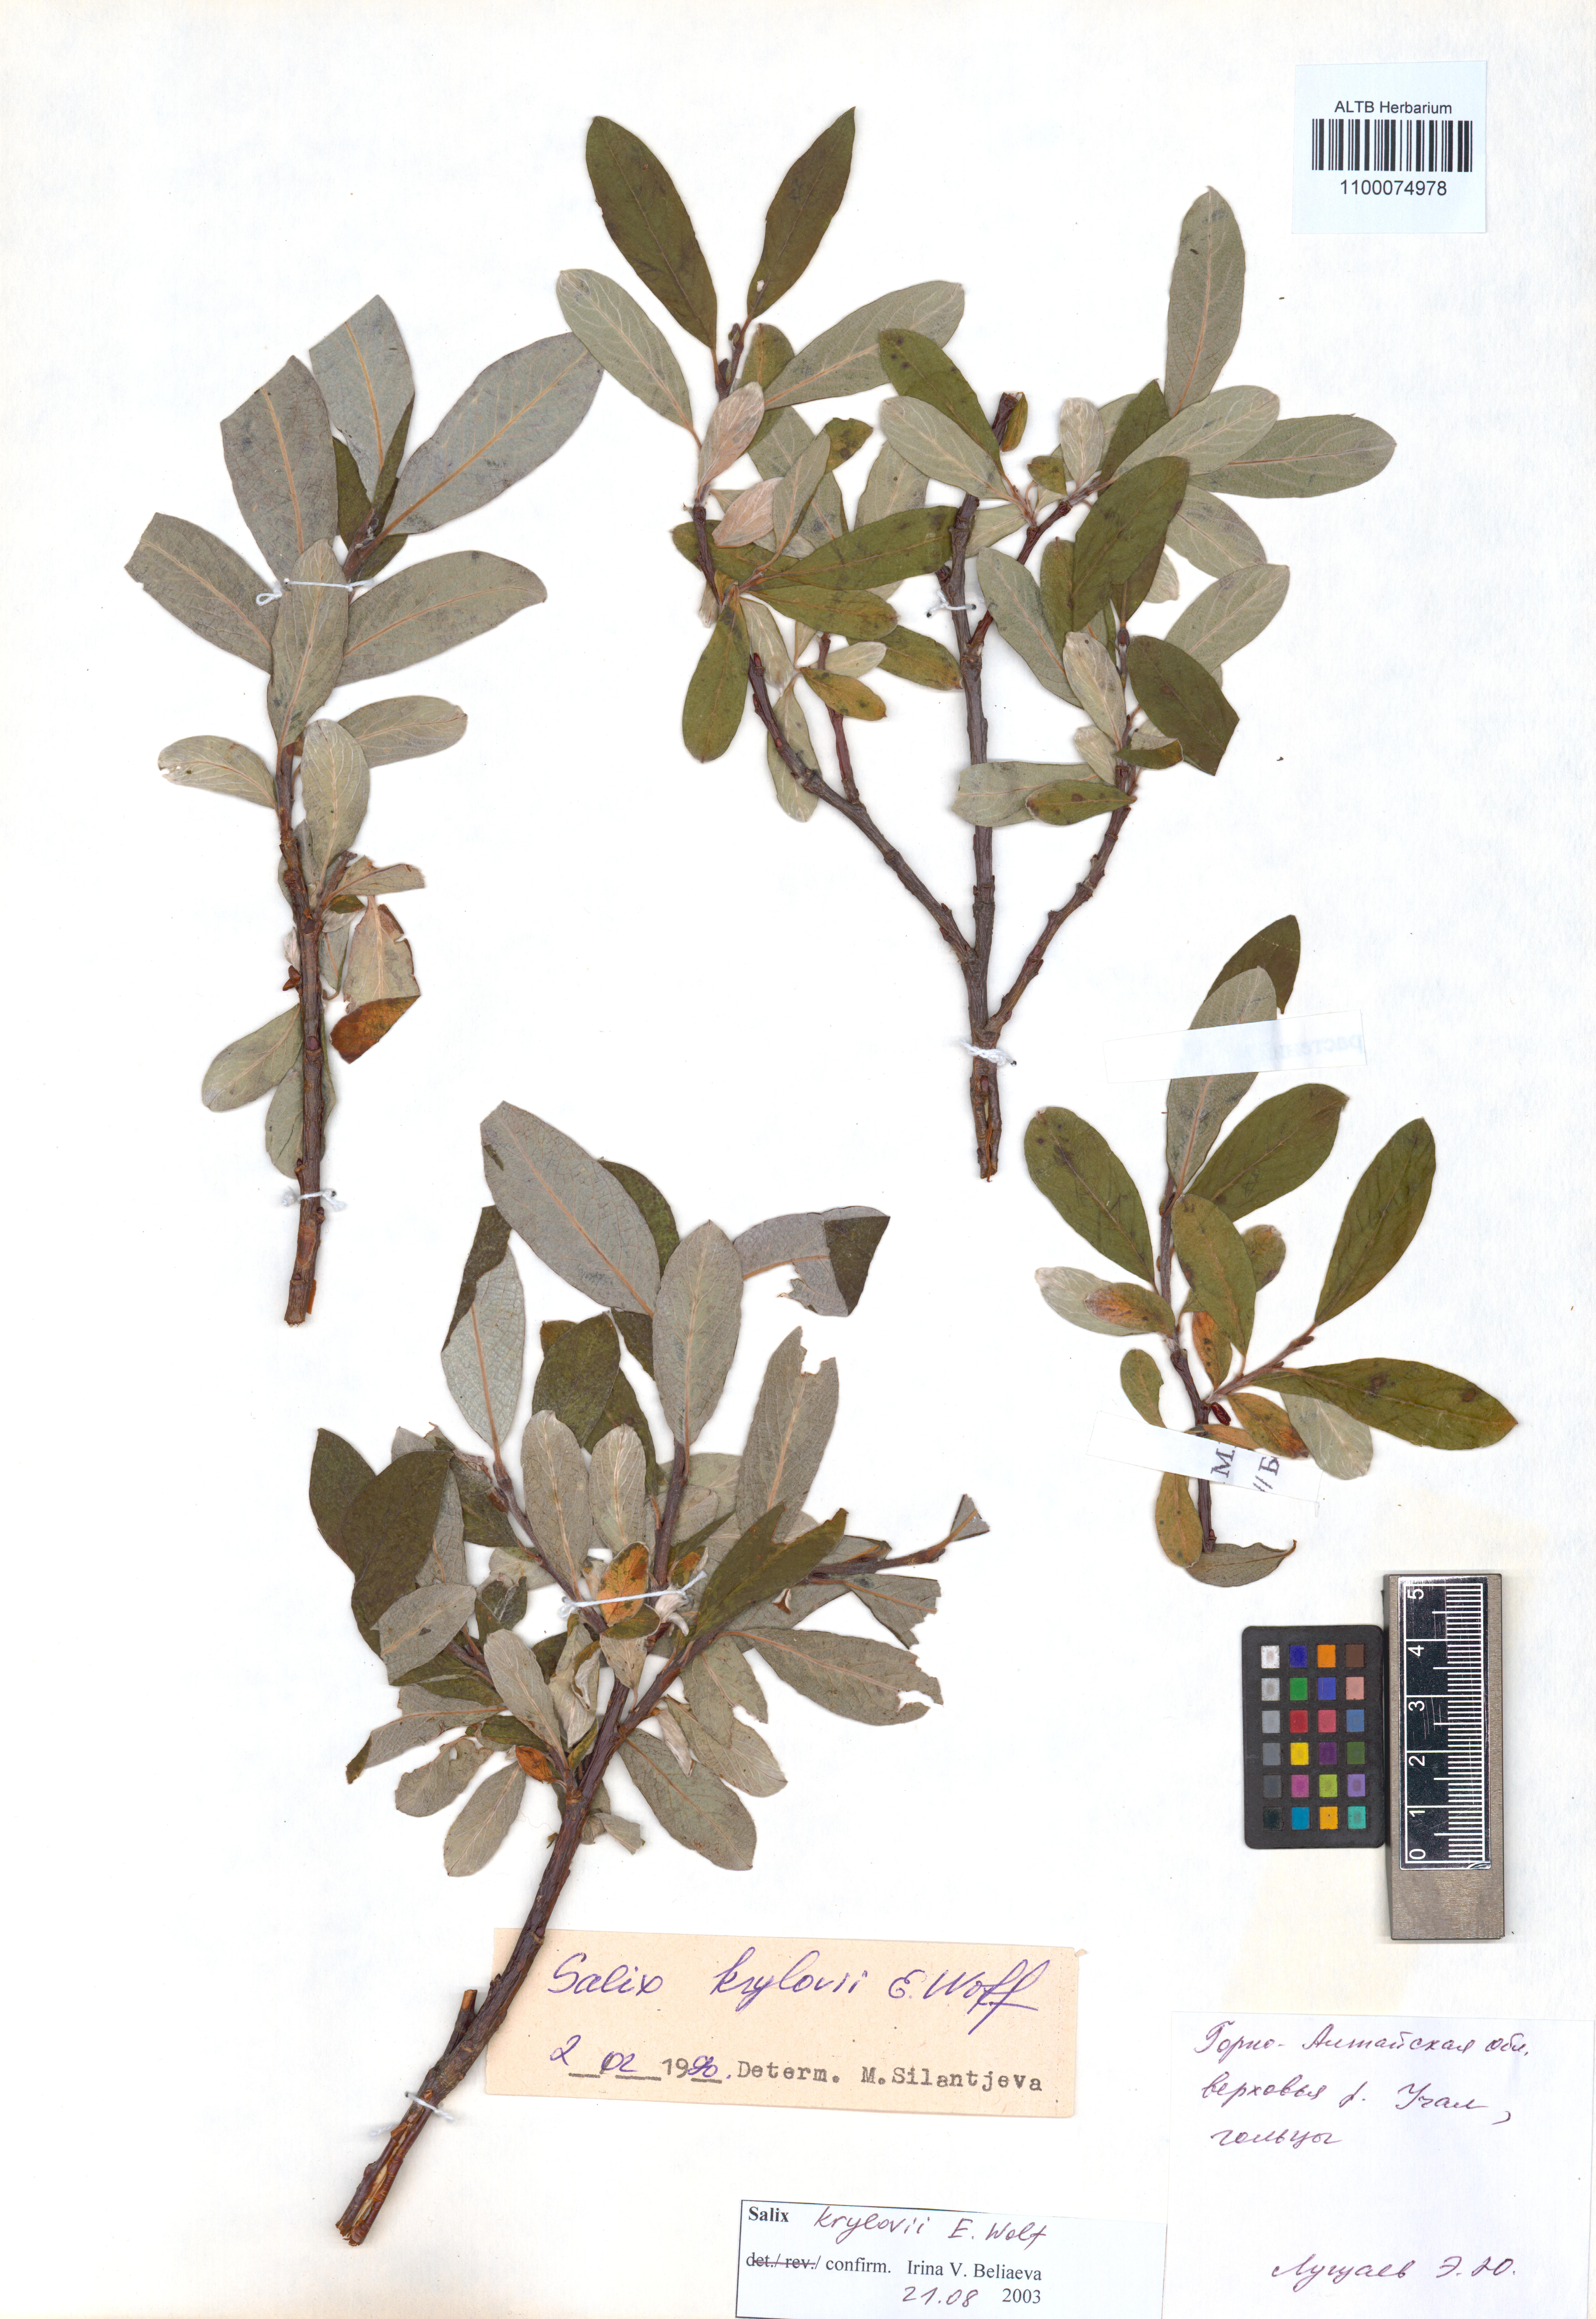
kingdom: Plantae
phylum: Tracheophyta
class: Magnoliopsida
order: Malpighiales
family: Salicaceae
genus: Salix
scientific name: Salix krylovii
